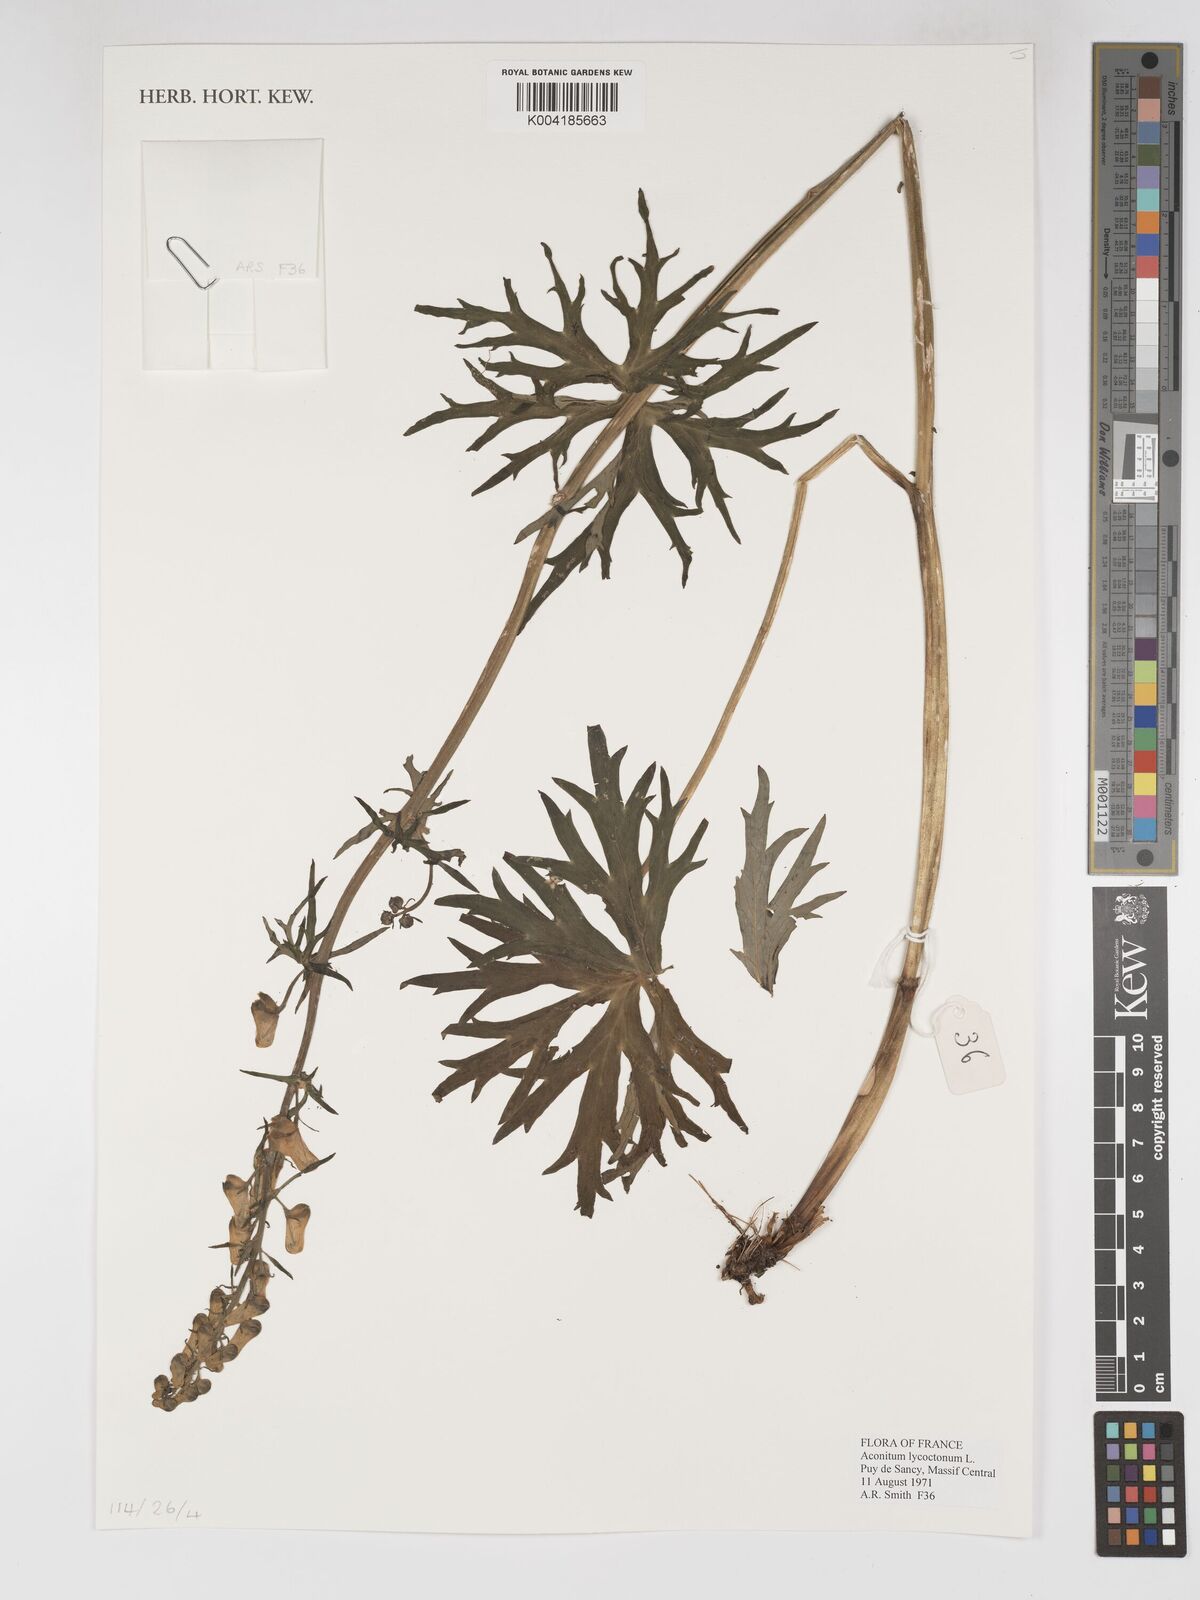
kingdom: Plantae
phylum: Tracheophyta
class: Magnoliopsida
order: Ranunculales
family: Ranunculaceae
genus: Aconitum
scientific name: Aconitum lycoctonum
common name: Wolf's-bane
